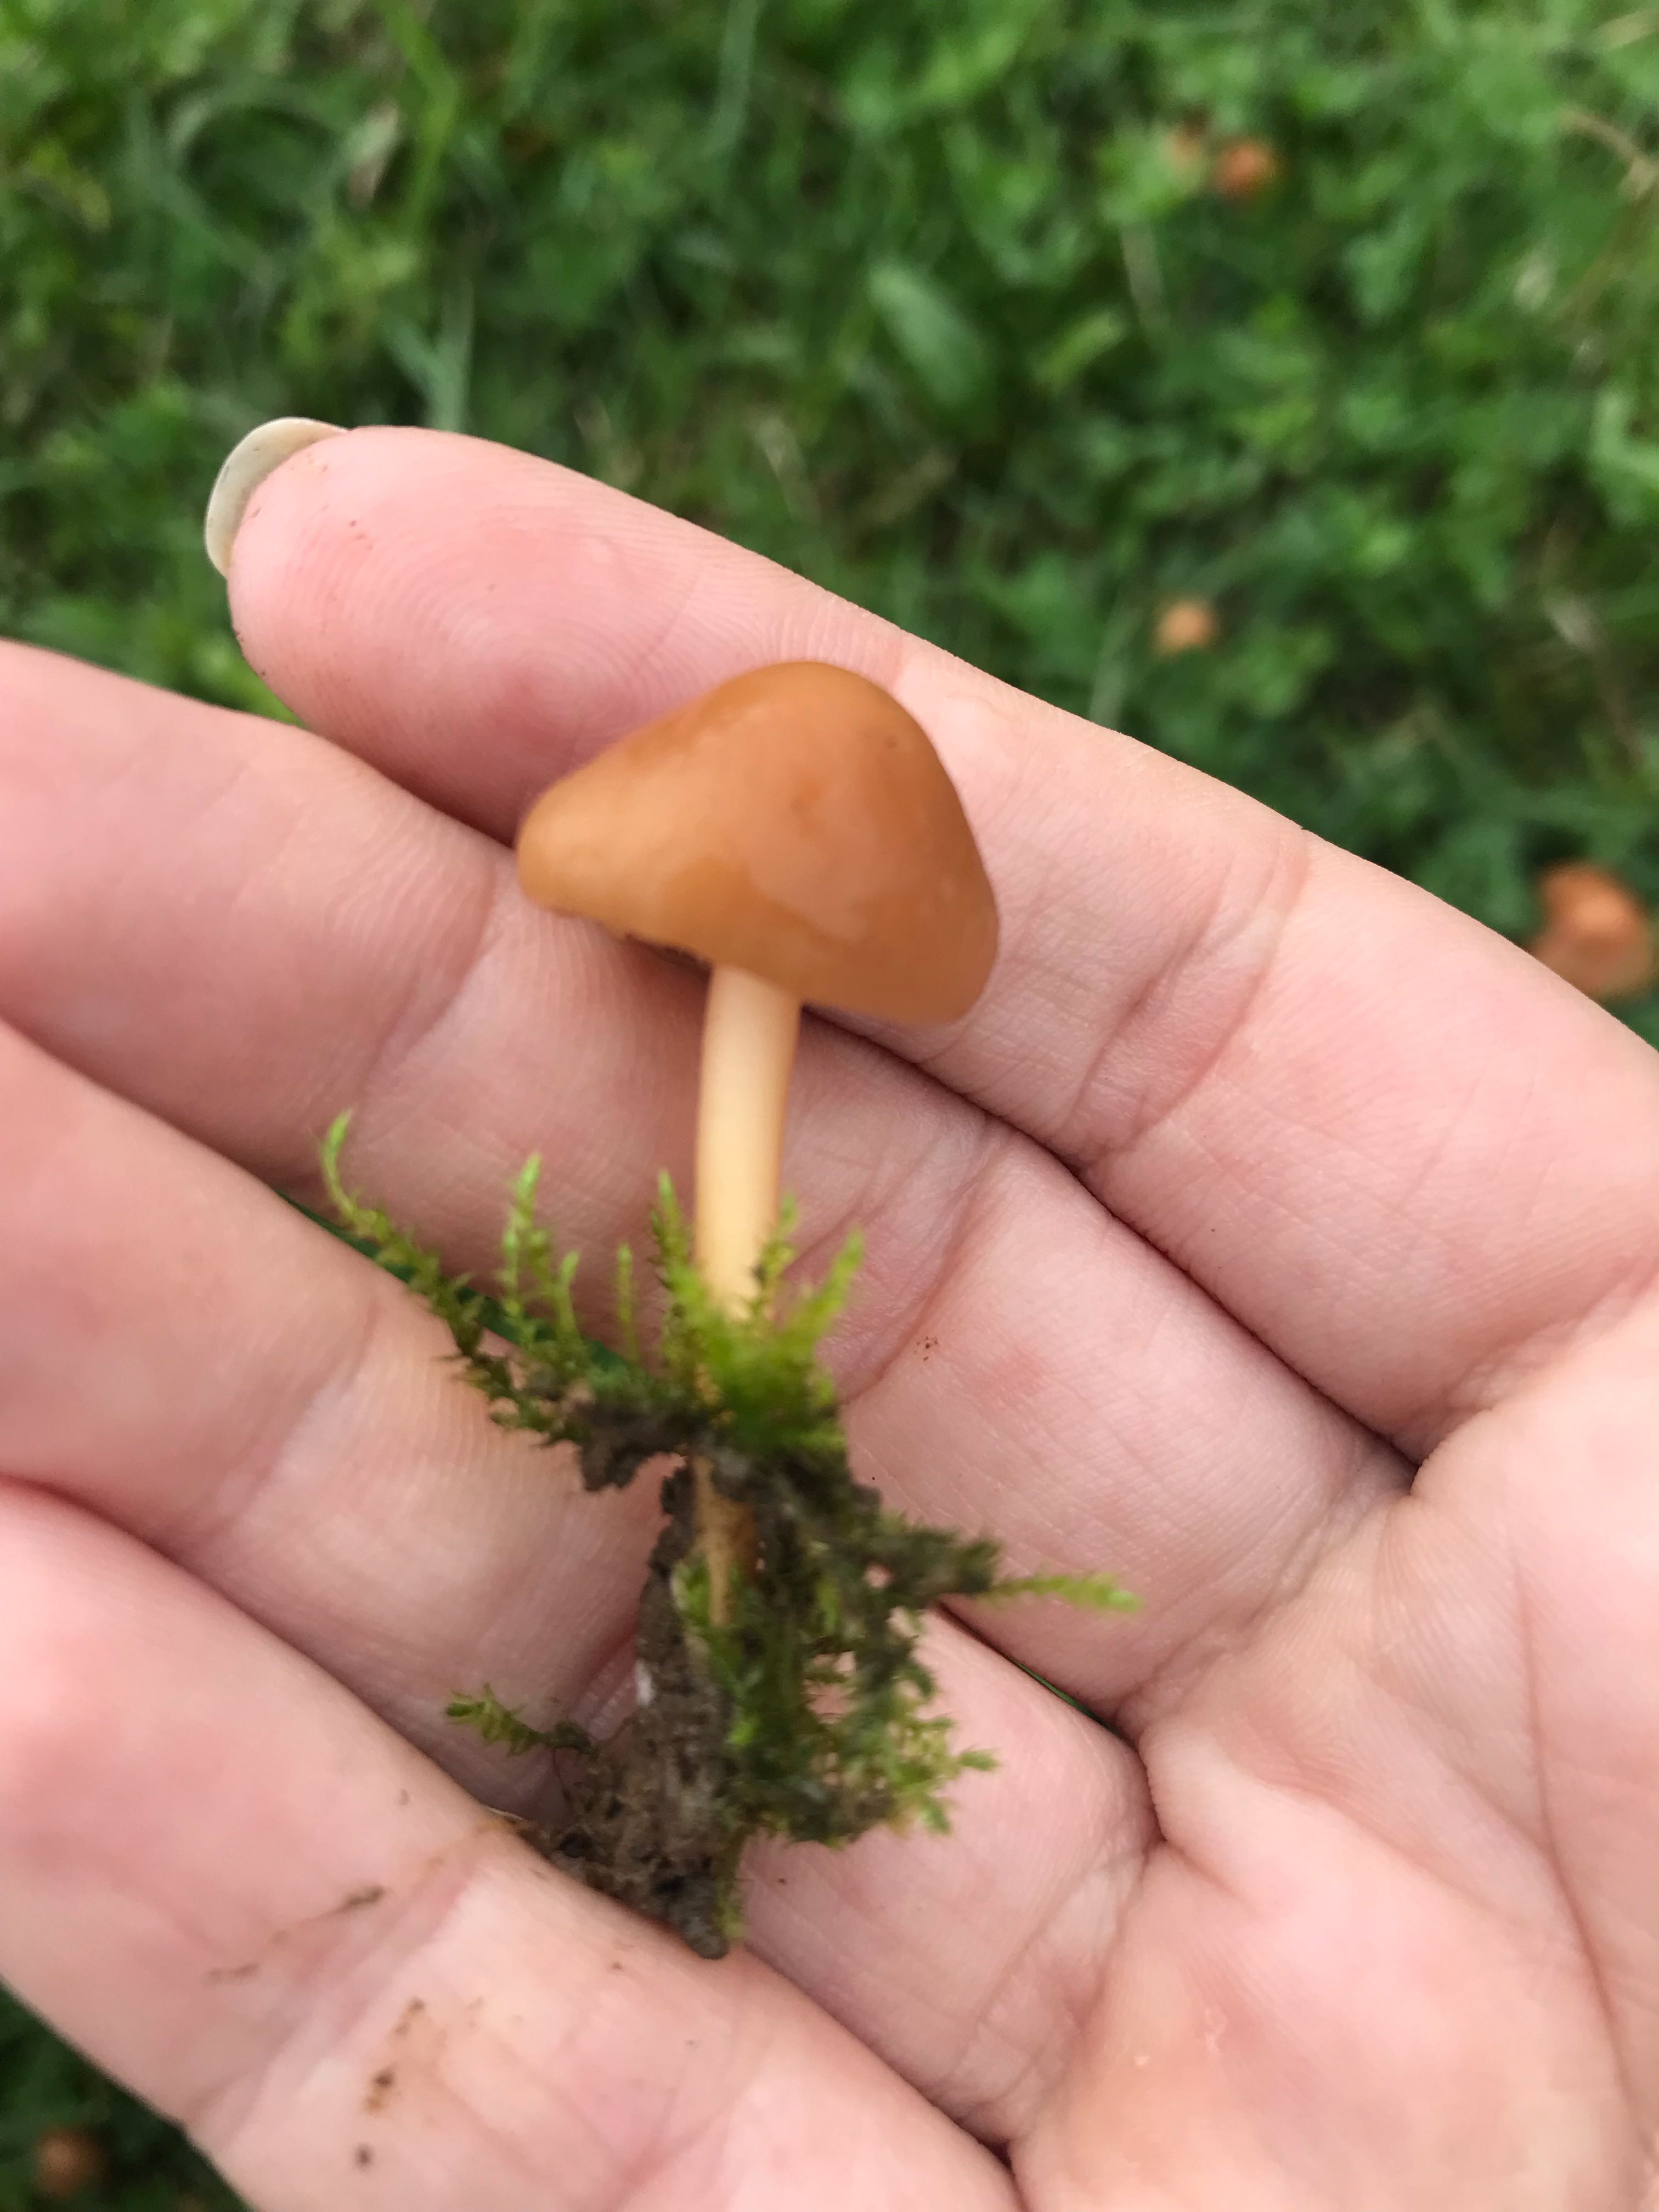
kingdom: Fungi
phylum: Basidiomycota
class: Agaricomycetes
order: Agaricales
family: Marasmiaceae
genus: Marasmius
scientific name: Marasmius oreades
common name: elledans-bruskhat
